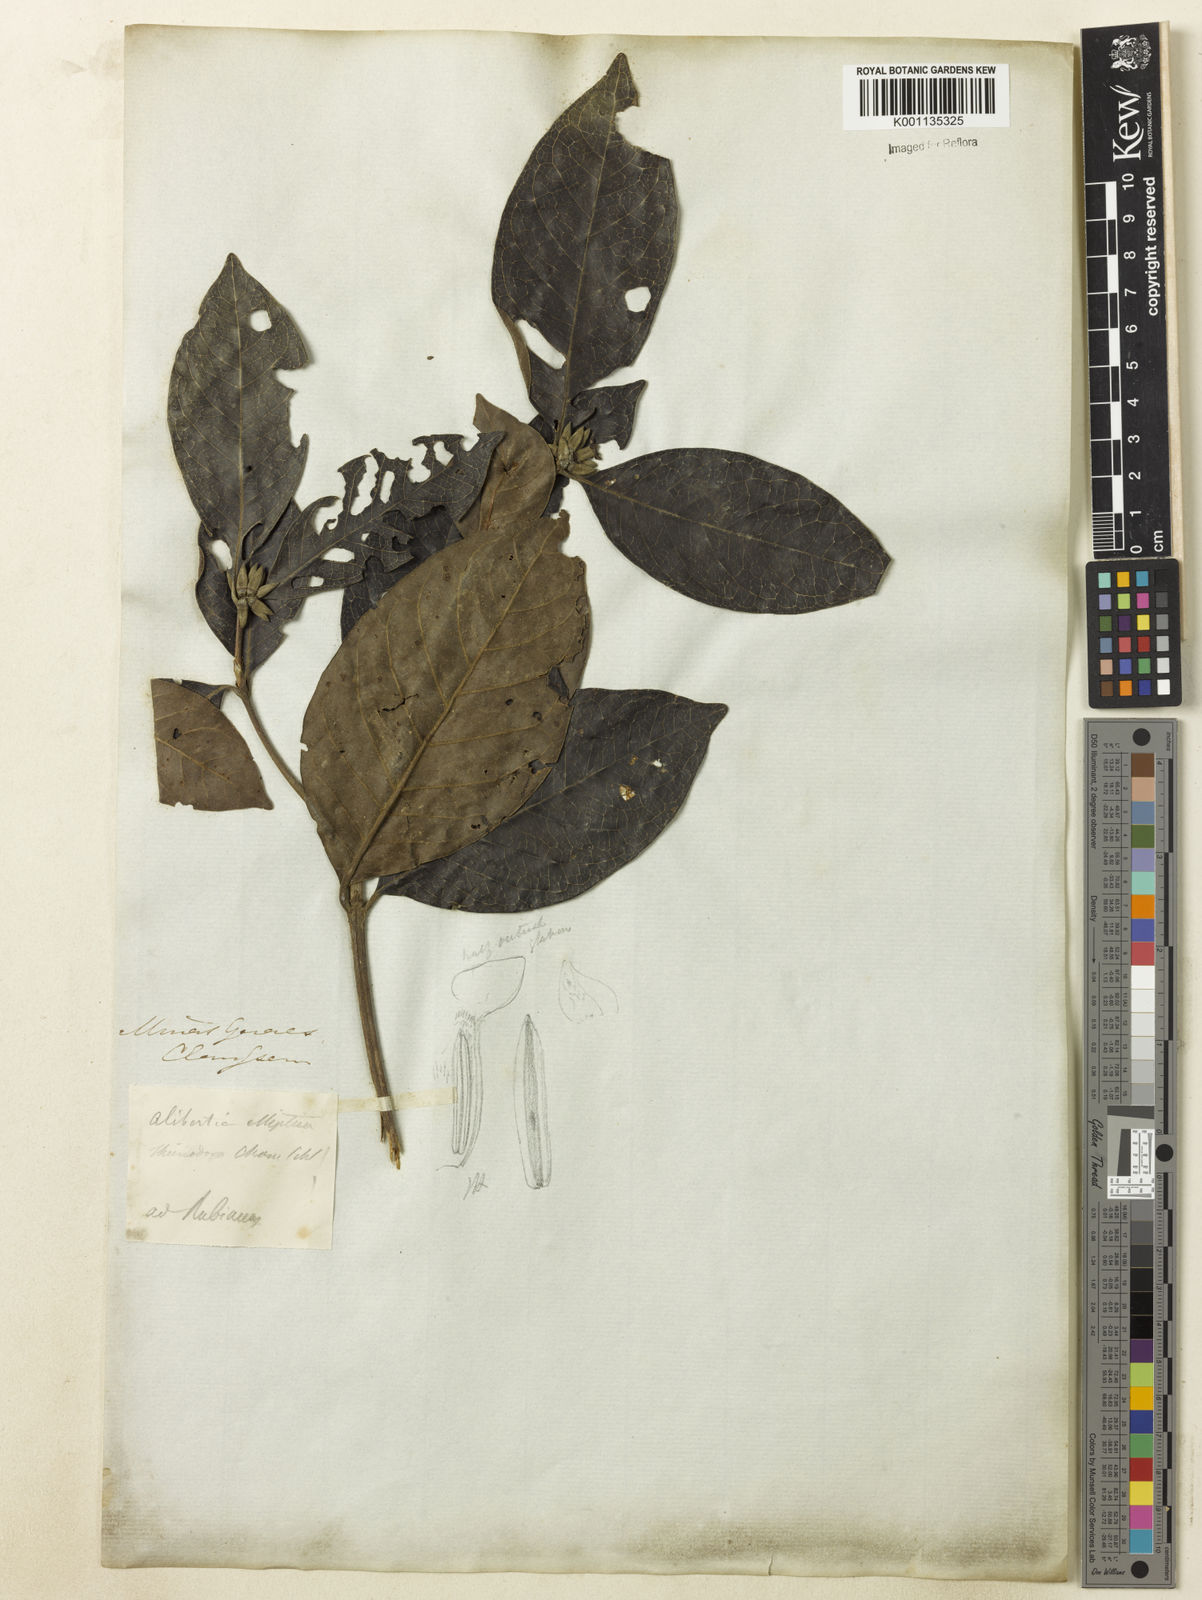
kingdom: Plantae
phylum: Tracheophyta
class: Magnoliopsida
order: Gentianales
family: Rubiaceae
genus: Cordiera
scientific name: Cordiera elliptica
